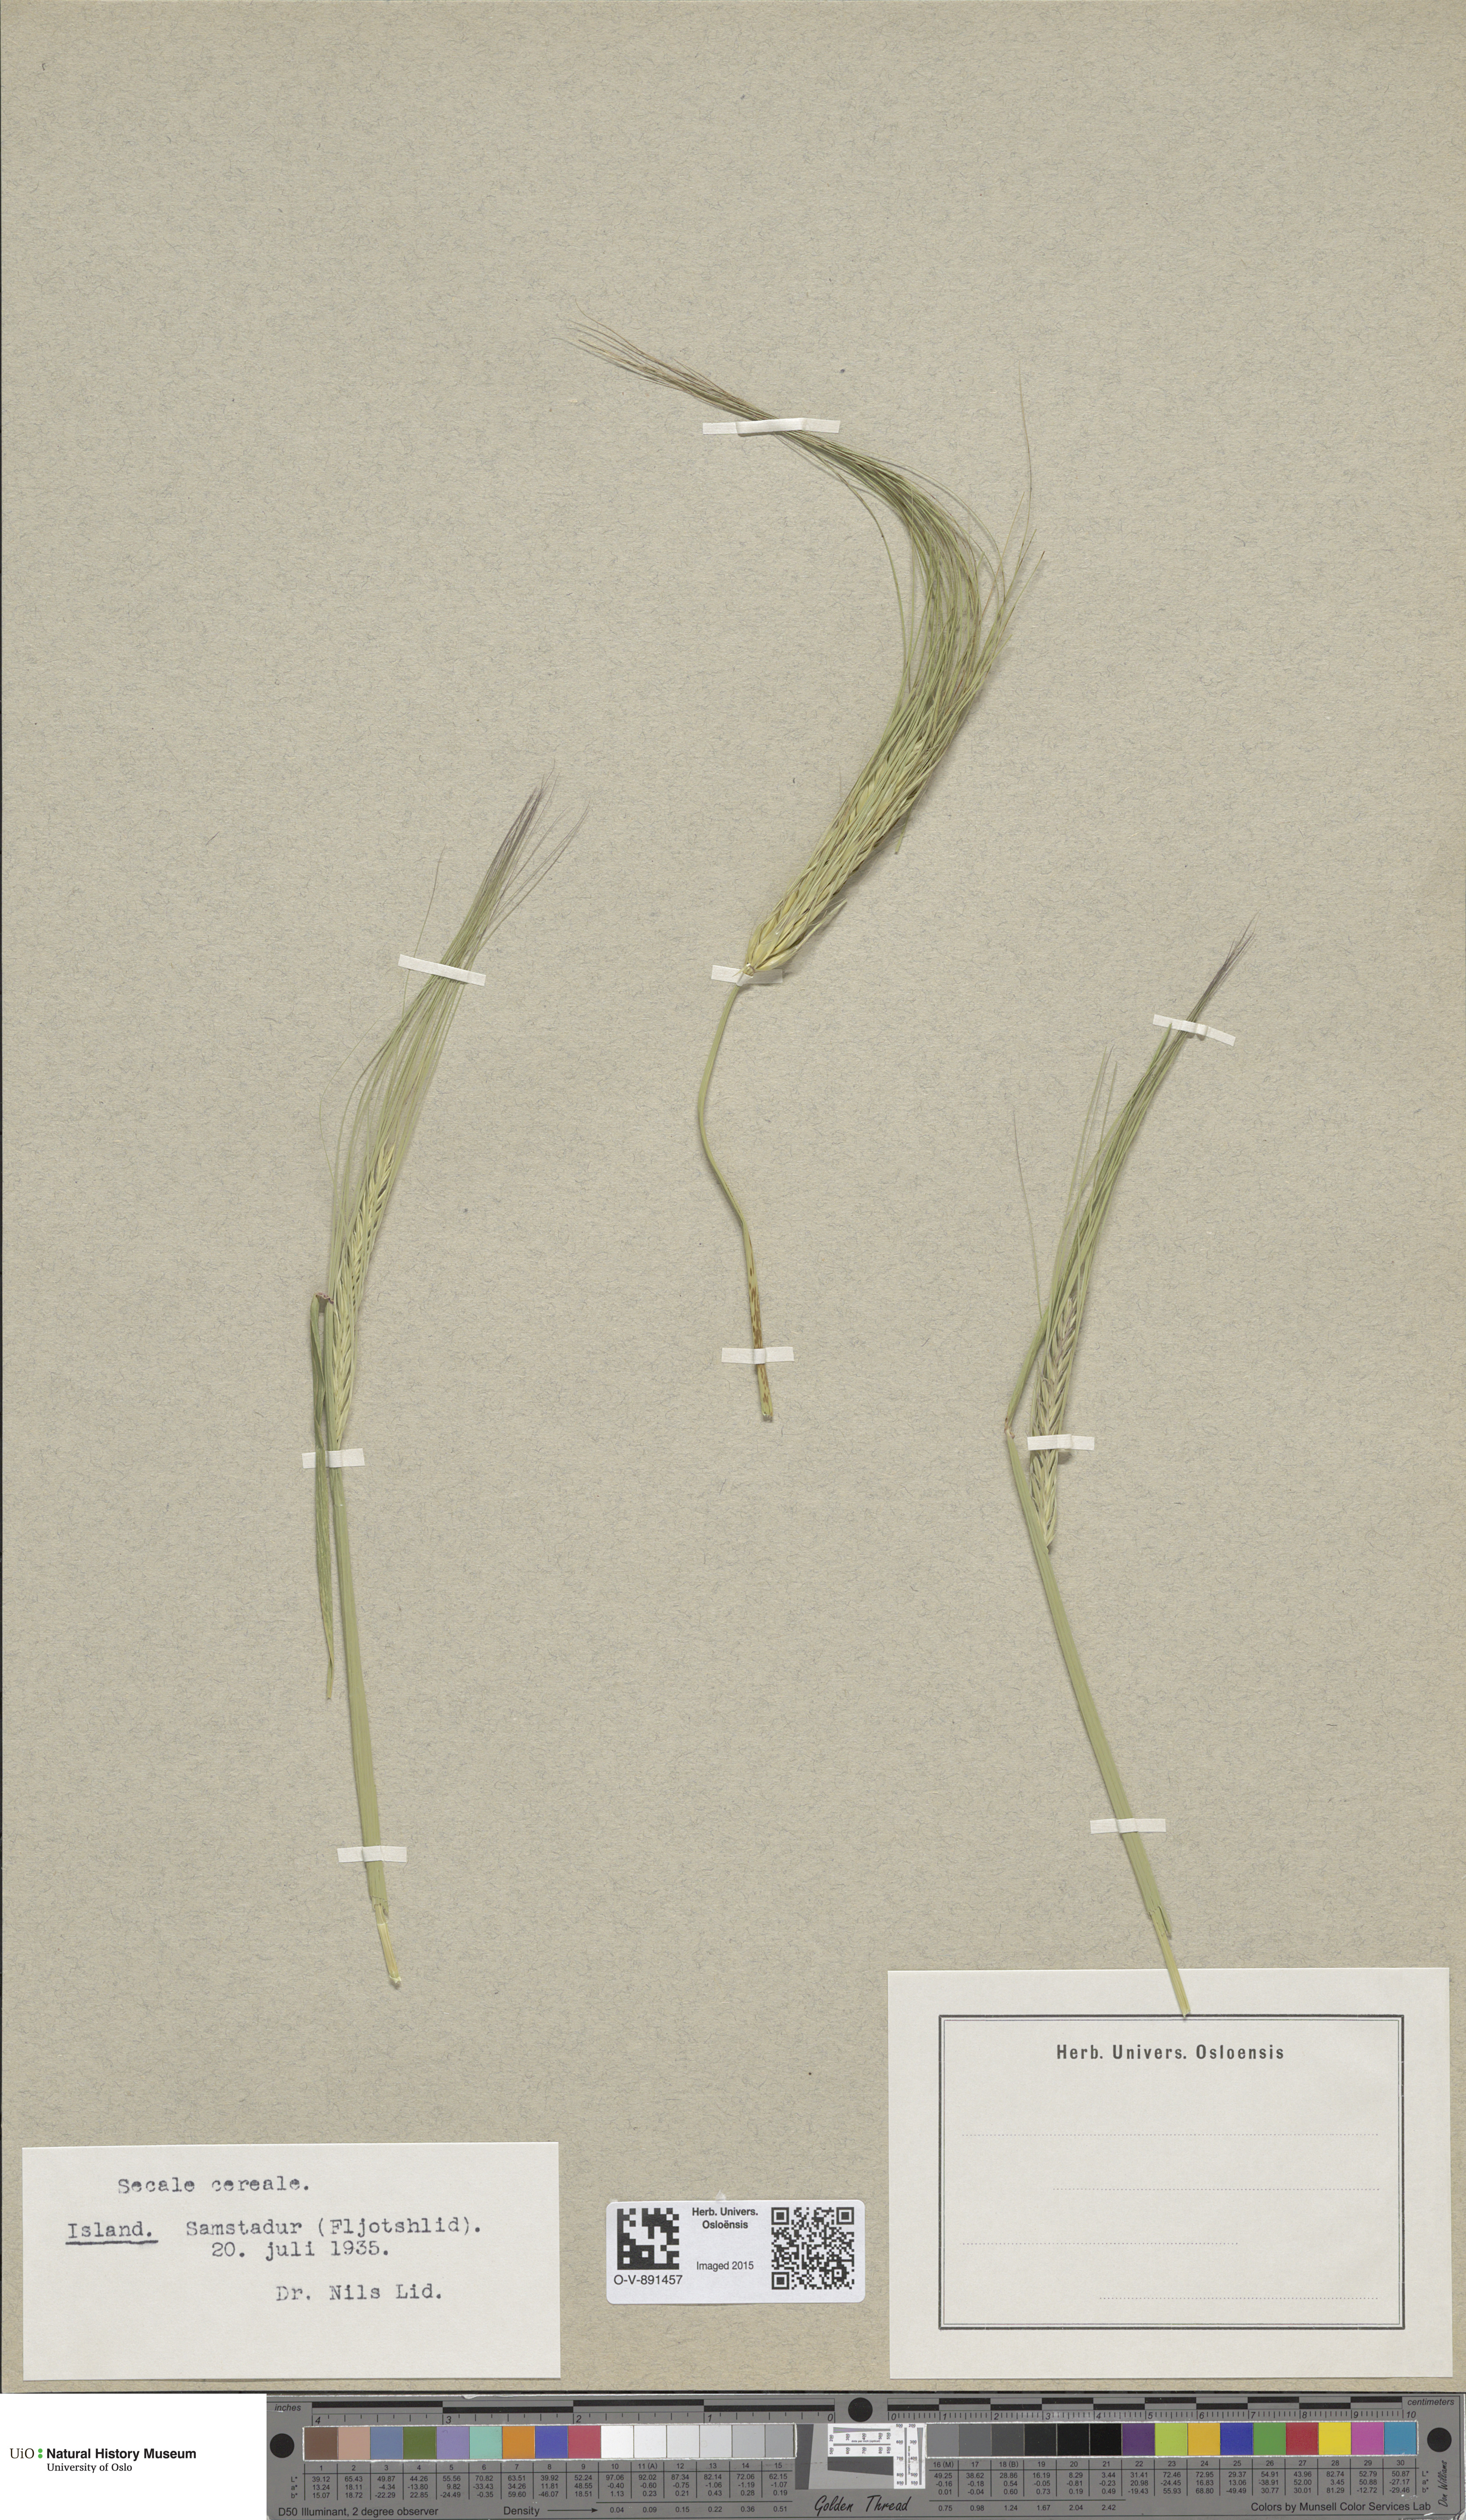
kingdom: Plantae
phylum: Tracheophyta
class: Liliopsida
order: Poales
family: Poaceae
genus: Secale
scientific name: Secale cereale
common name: Rye
